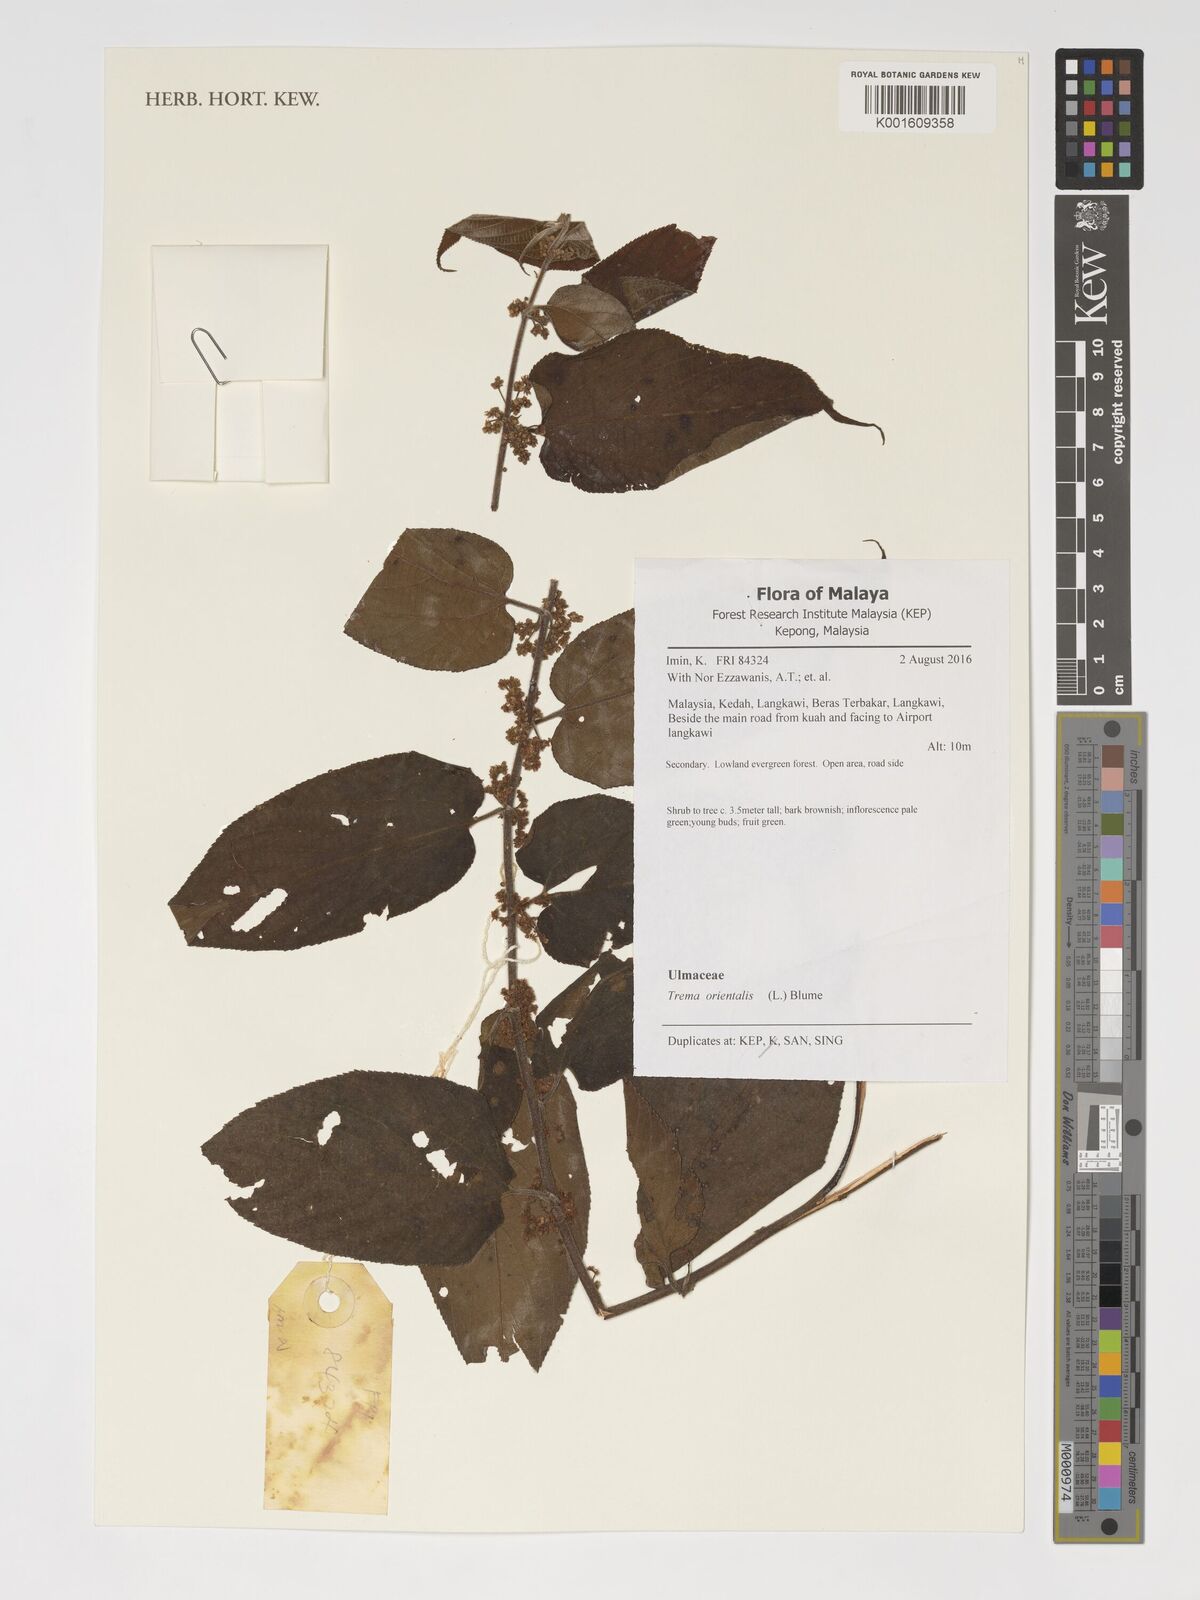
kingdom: Plantae
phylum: Tracheophyta
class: Magnoliopsida
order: Rosales
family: Cannabaceae
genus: Trema
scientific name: Trema orientale
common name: Indian charcoal tree
